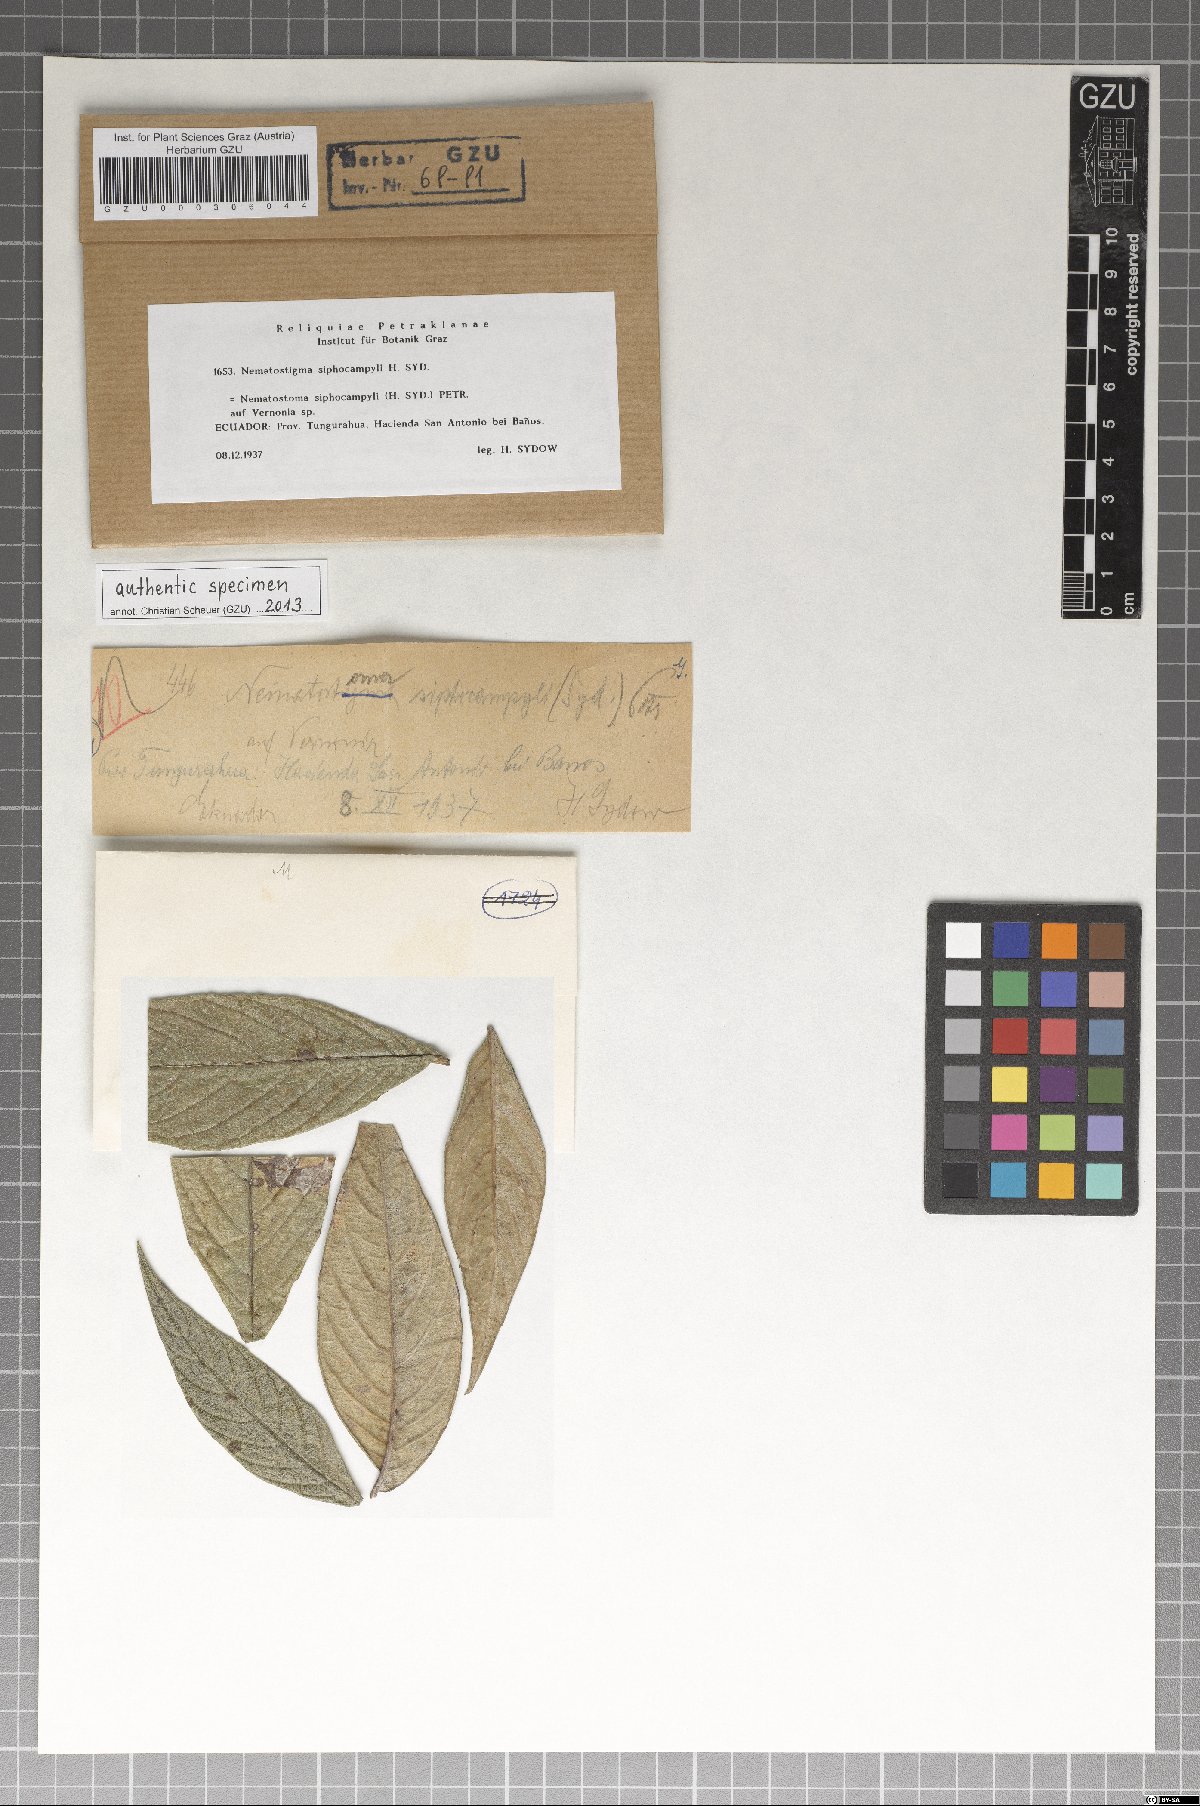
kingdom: Fungi
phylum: Ascomycota
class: Dothideomycetes
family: Pseudoperisporiaceae
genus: Nematostoma
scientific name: Nematostoma siphocampyli
